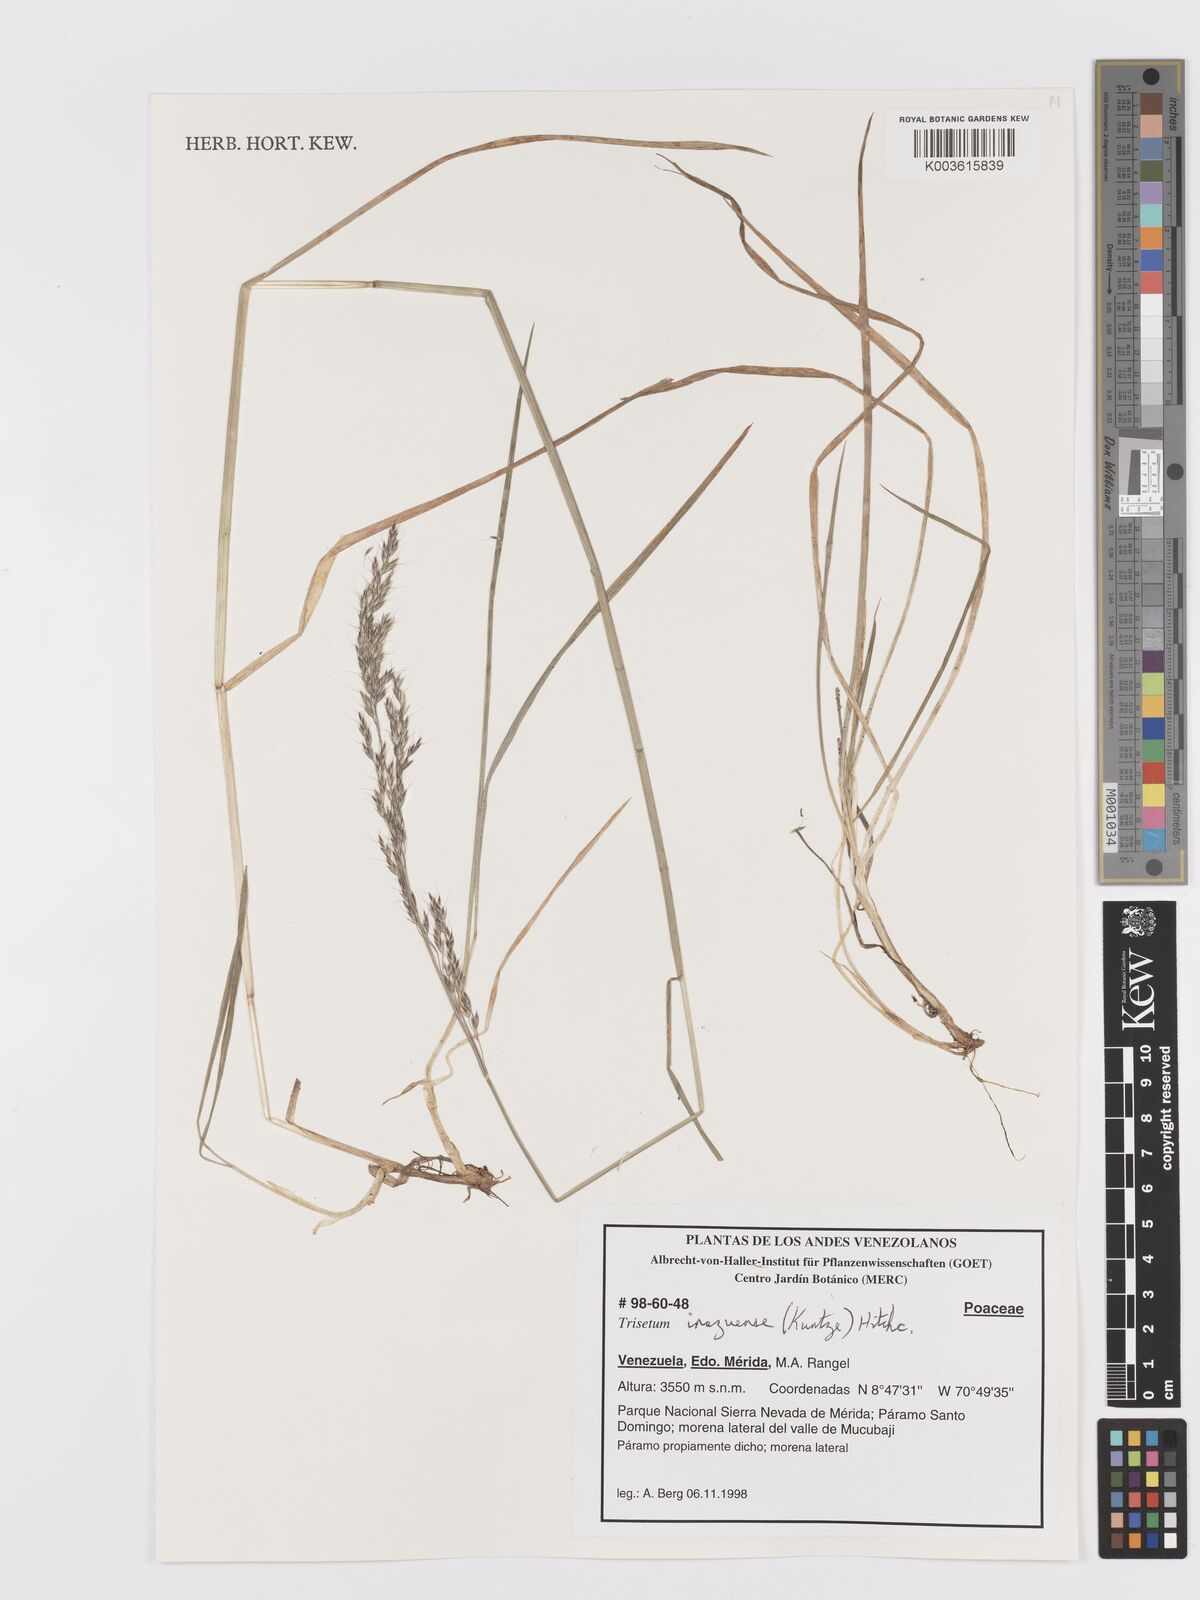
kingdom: Plantae
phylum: Tracheophyta
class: Liliopsida
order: Poales
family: Poaceae
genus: Peyritschia
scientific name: Peyritschia irazuensis
